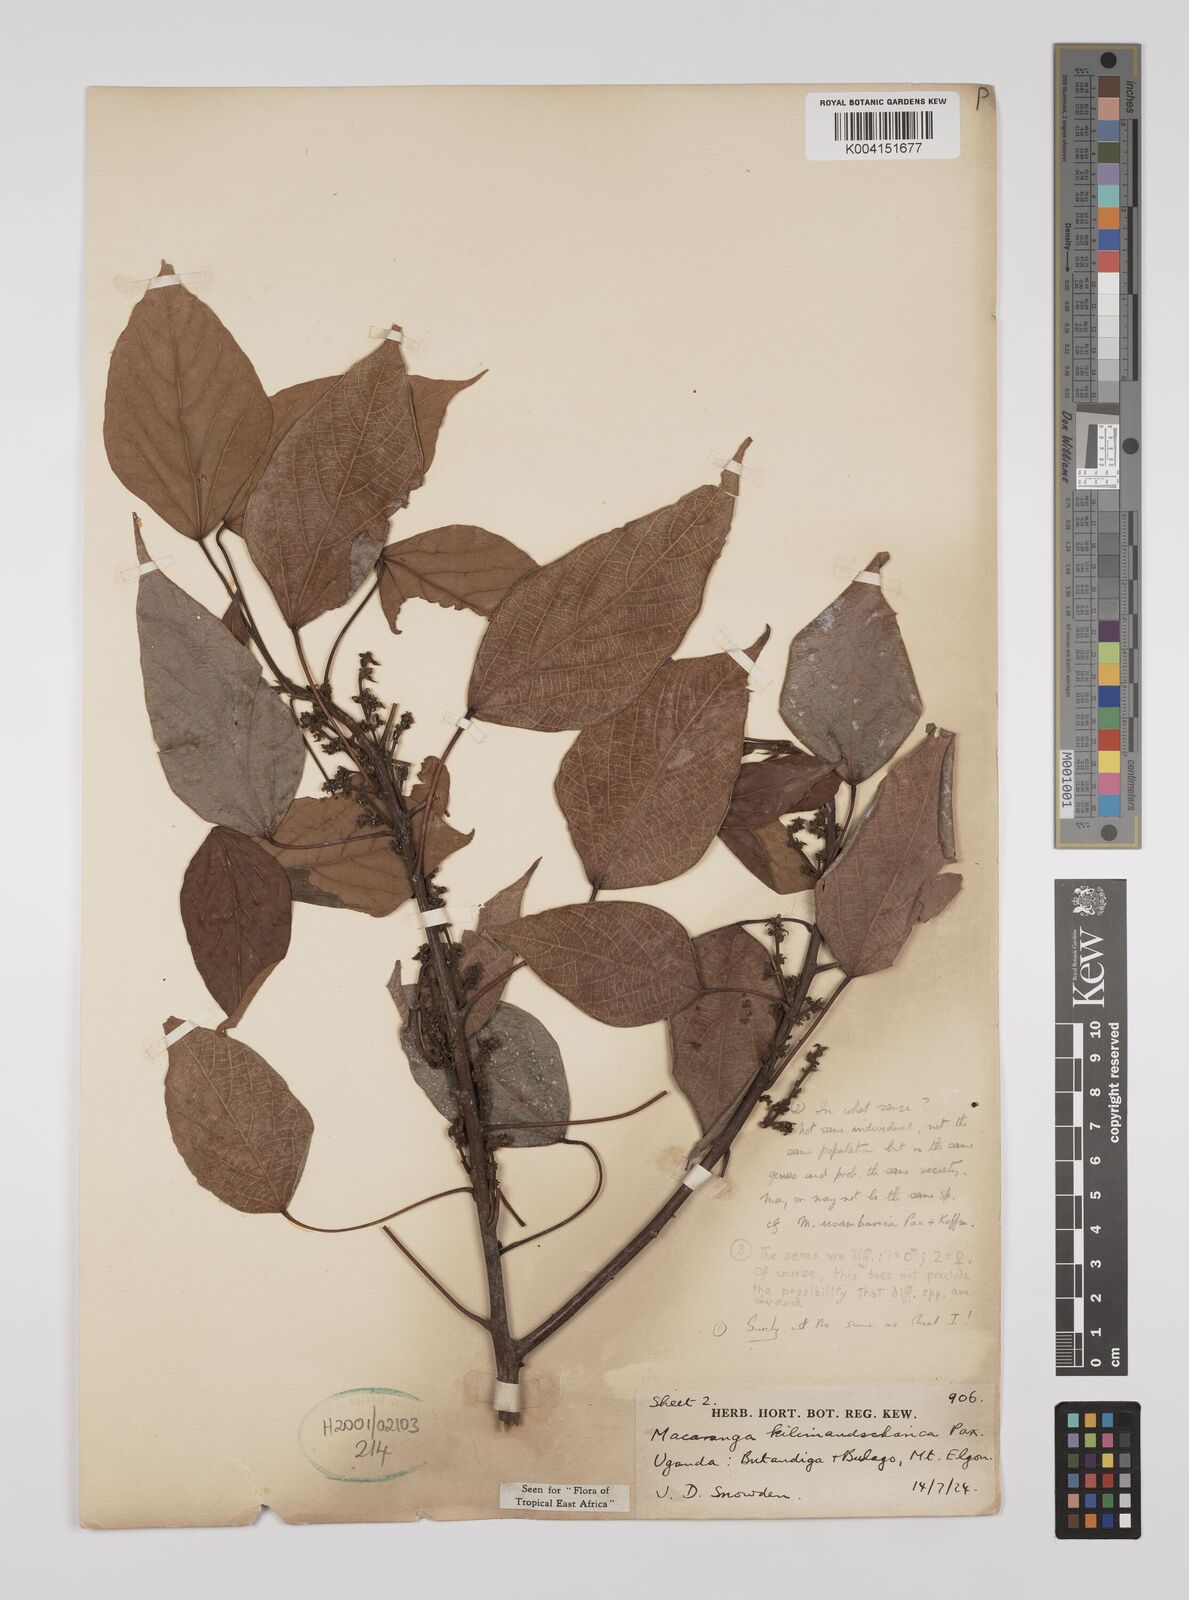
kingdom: Plantae
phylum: Tracheophyta
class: Magnoliopsida
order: Malpighiales
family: Euphorbiaceae
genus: Macaranga
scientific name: Macaranga kilimandscharica
